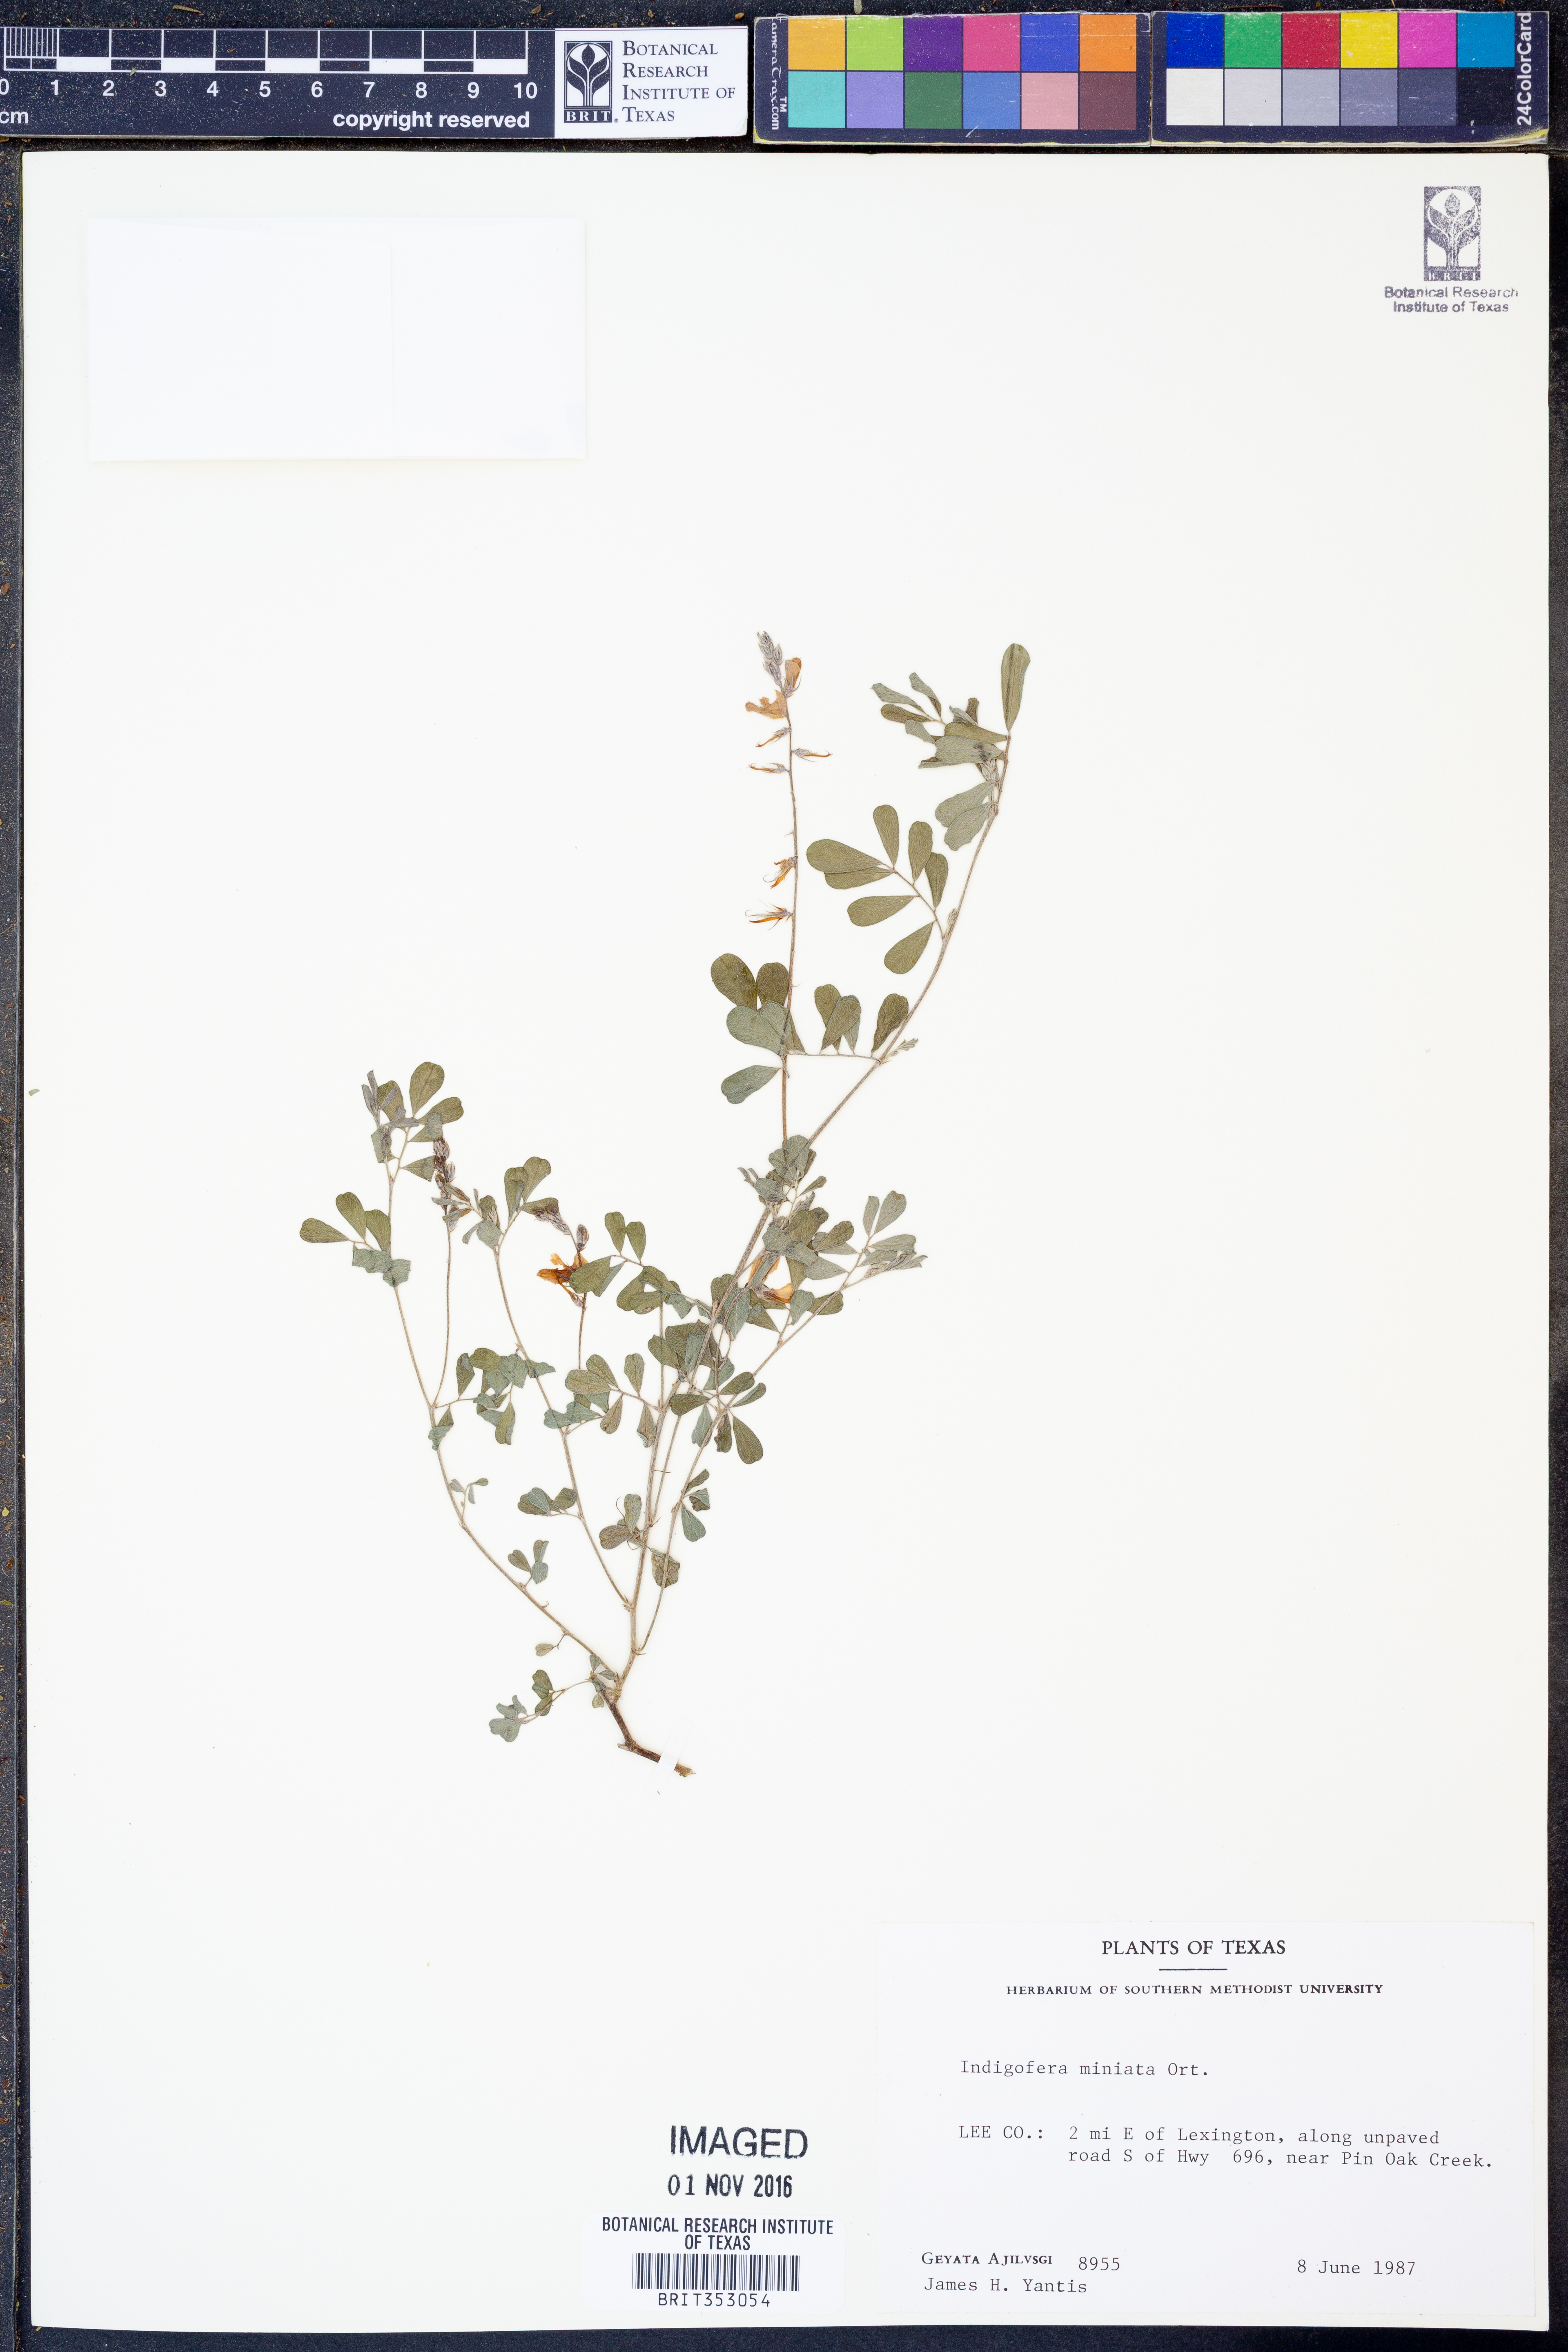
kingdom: Plantae
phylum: Tracheophyta
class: Magnoliopsida
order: Fabales
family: Fabaceae
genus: Indigofera
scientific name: Indigofera miniata
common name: Coast indigo
